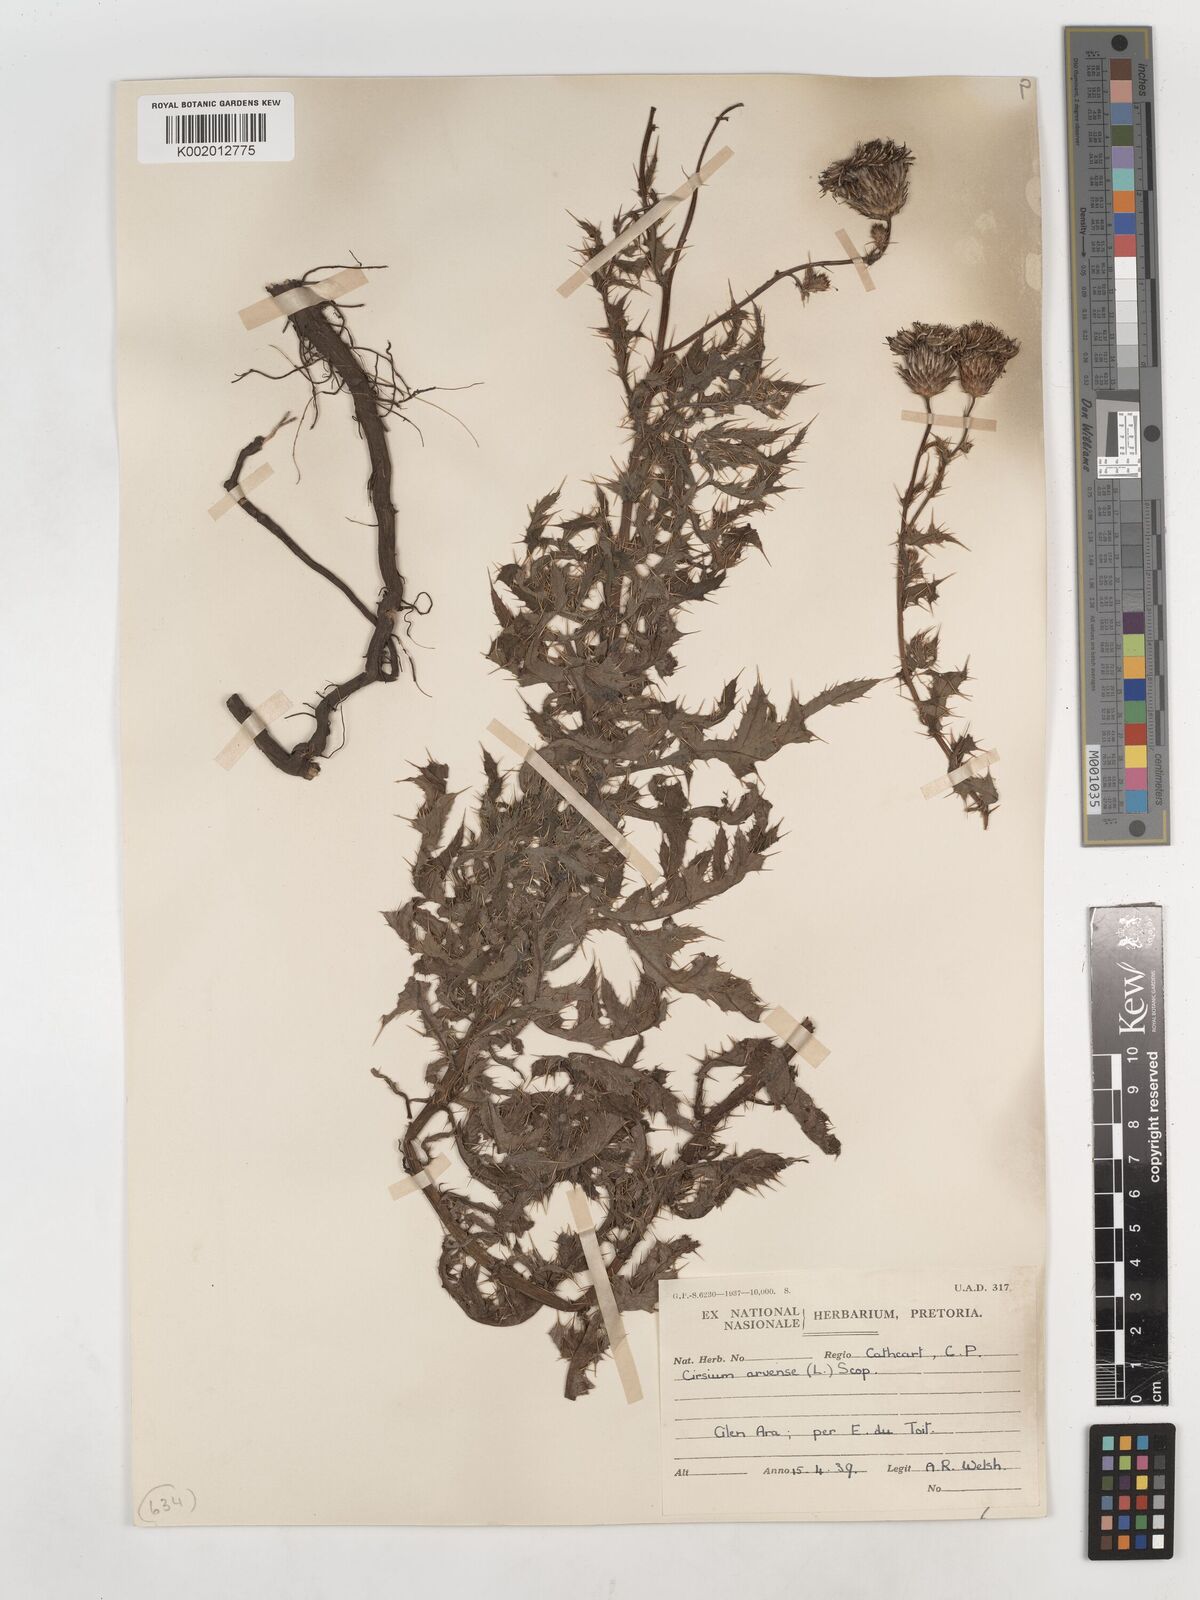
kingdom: Plantae
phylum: Tracheophyta
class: Magnoliopsida
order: Asterales
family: Asteraceae
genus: Cirsium
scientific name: Cirsium arvense
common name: Creeping thistle
